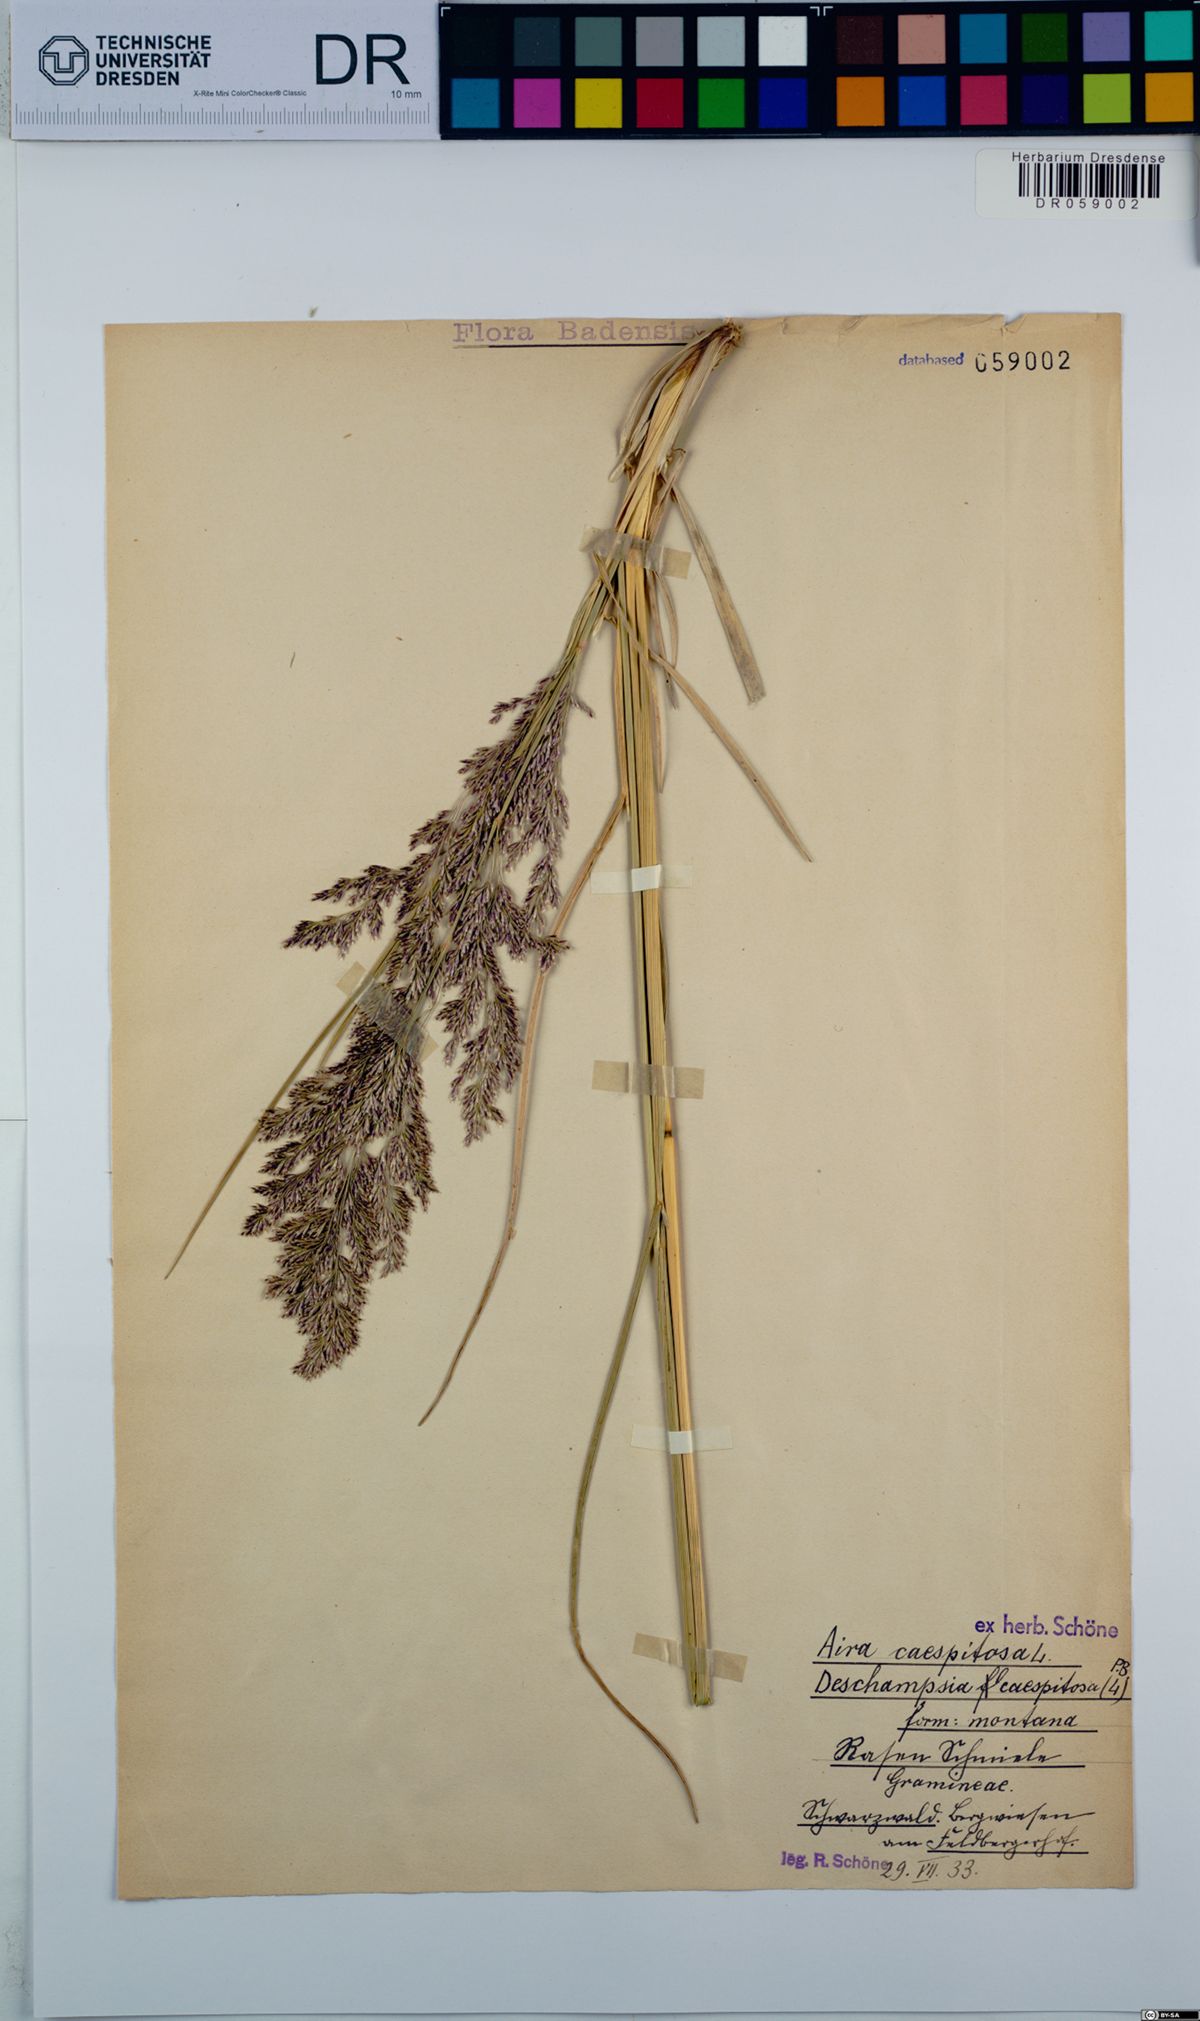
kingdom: Plantae
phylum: Tracheophyta
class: Liliopsida
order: Poales
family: Poaceae
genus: Deschampsia
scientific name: Deschampsia cespitosa
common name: Tufted hair-grass
